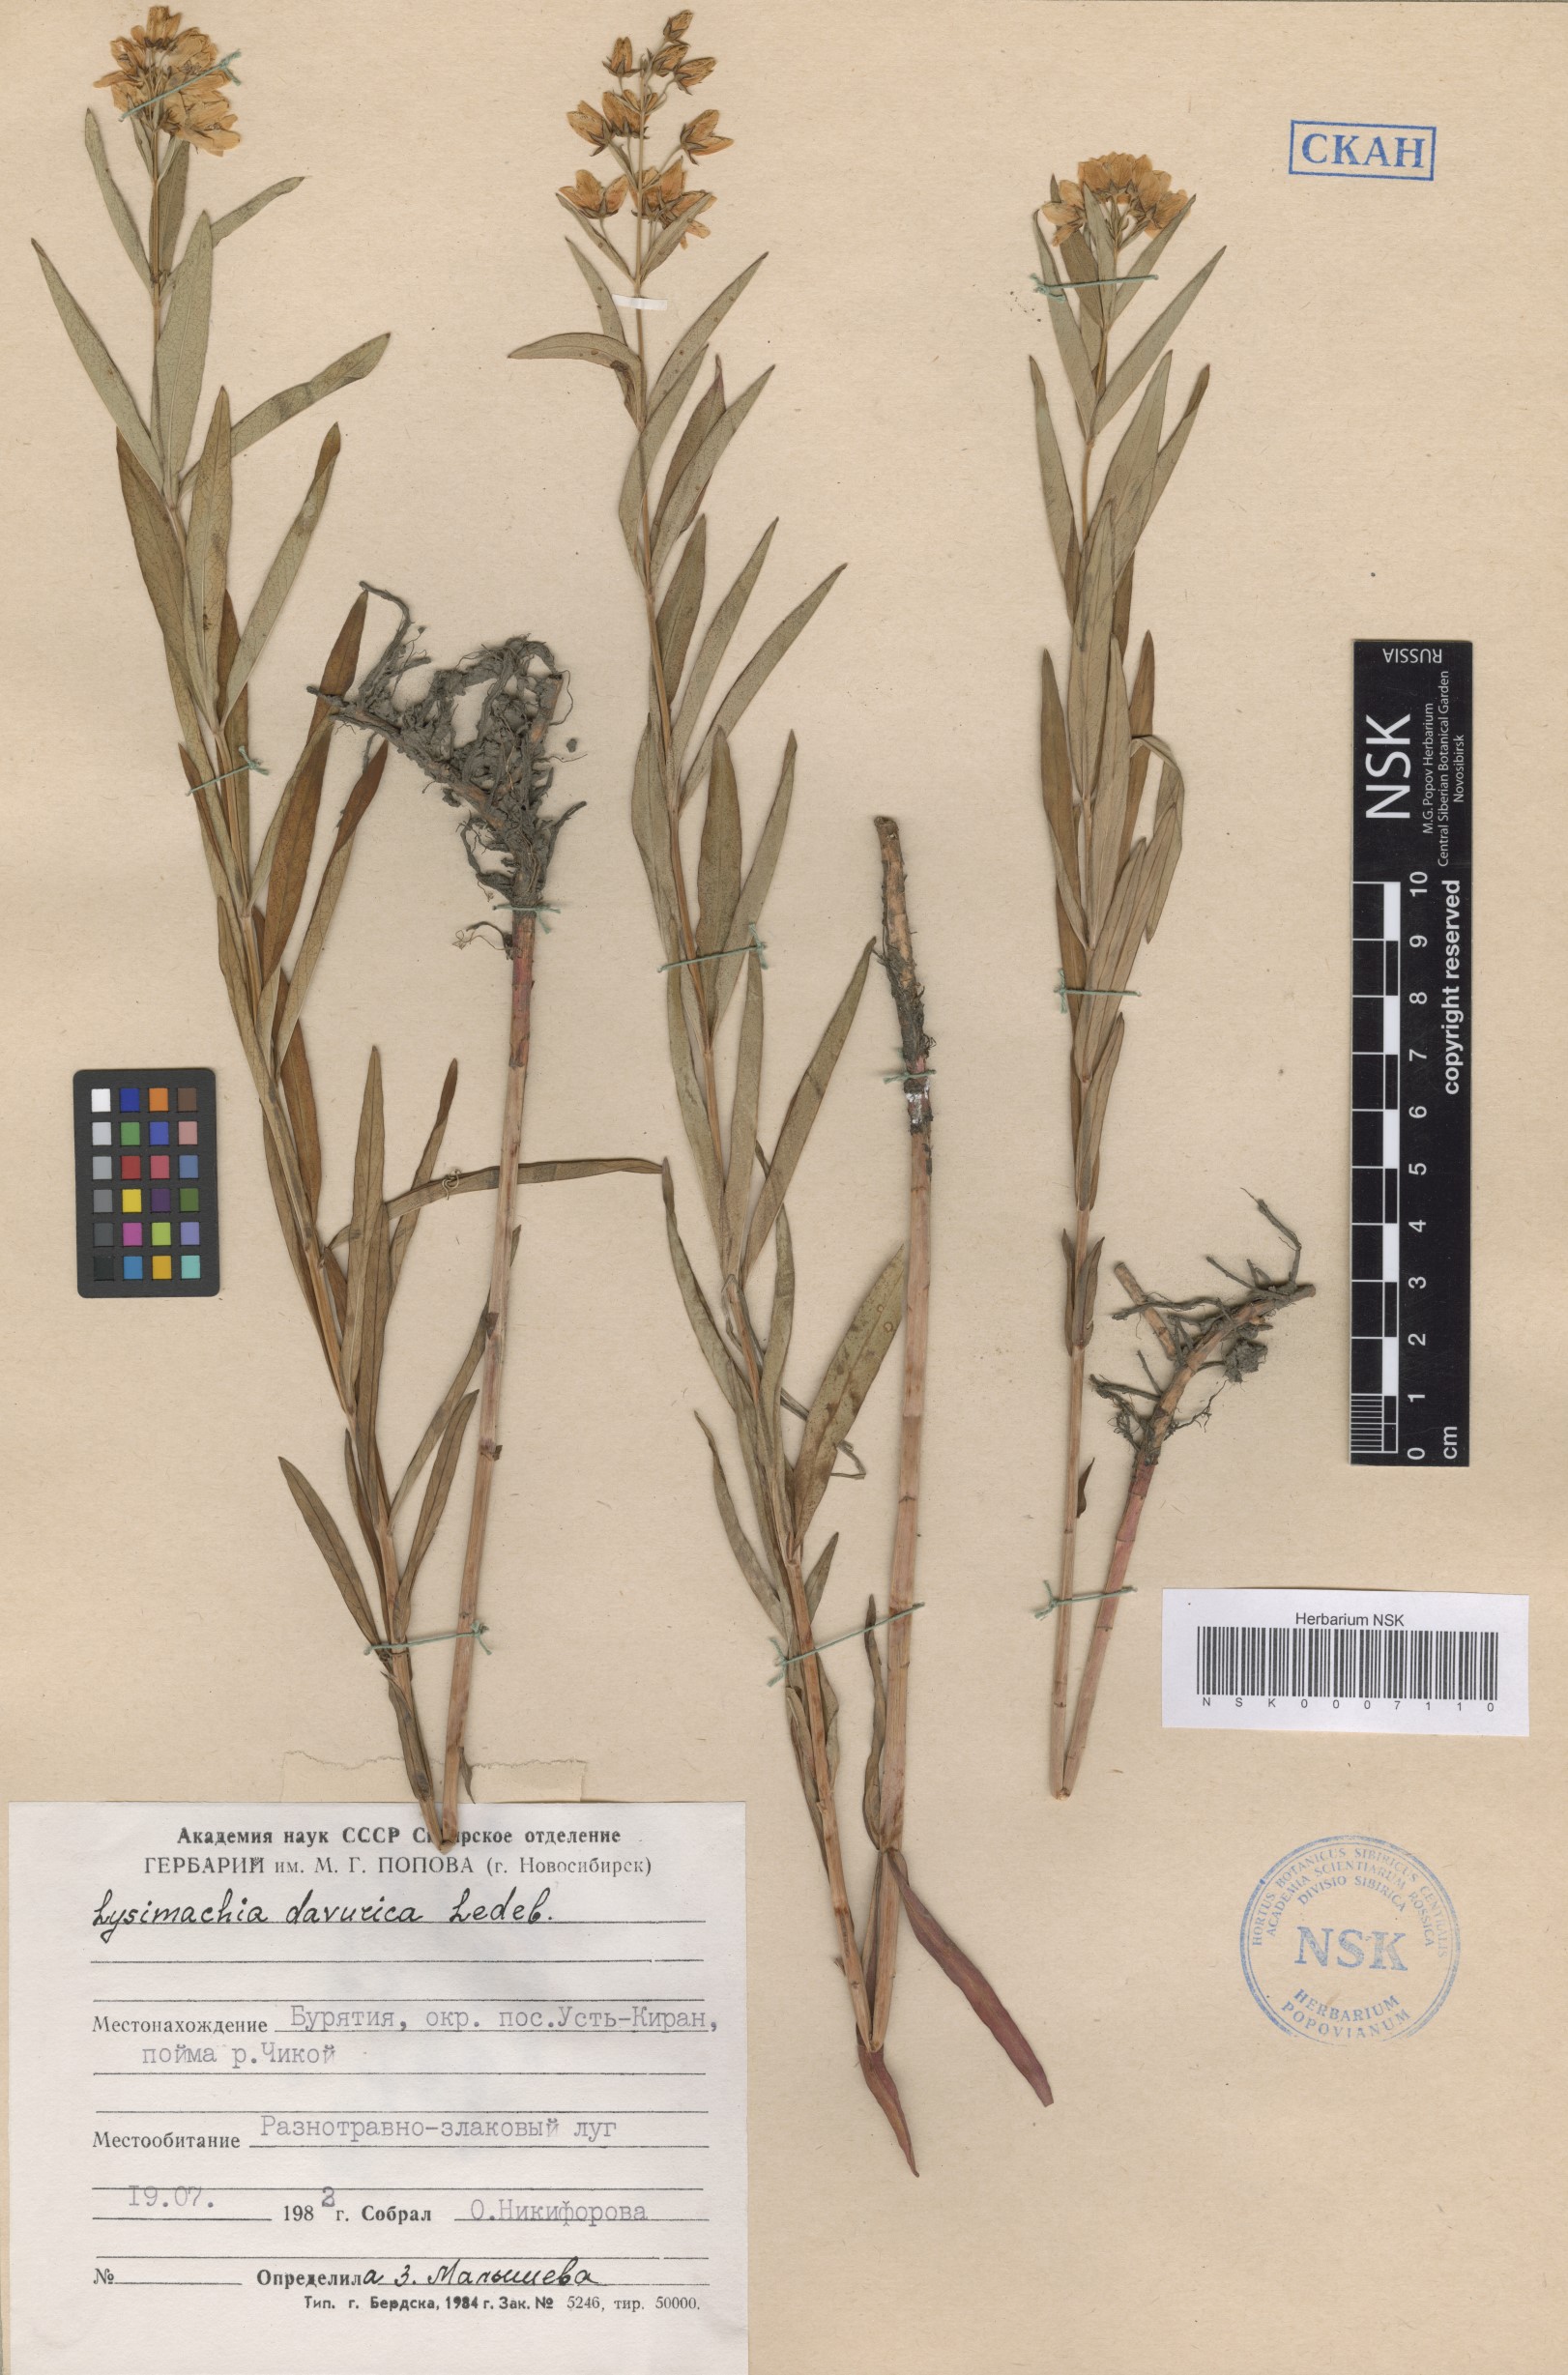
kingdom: Plantae
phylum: Tracheophyta
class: Magnoliopsida
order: Ericales
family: Primulaceae
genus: Lysimachia
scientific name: Lysimachia davurica
